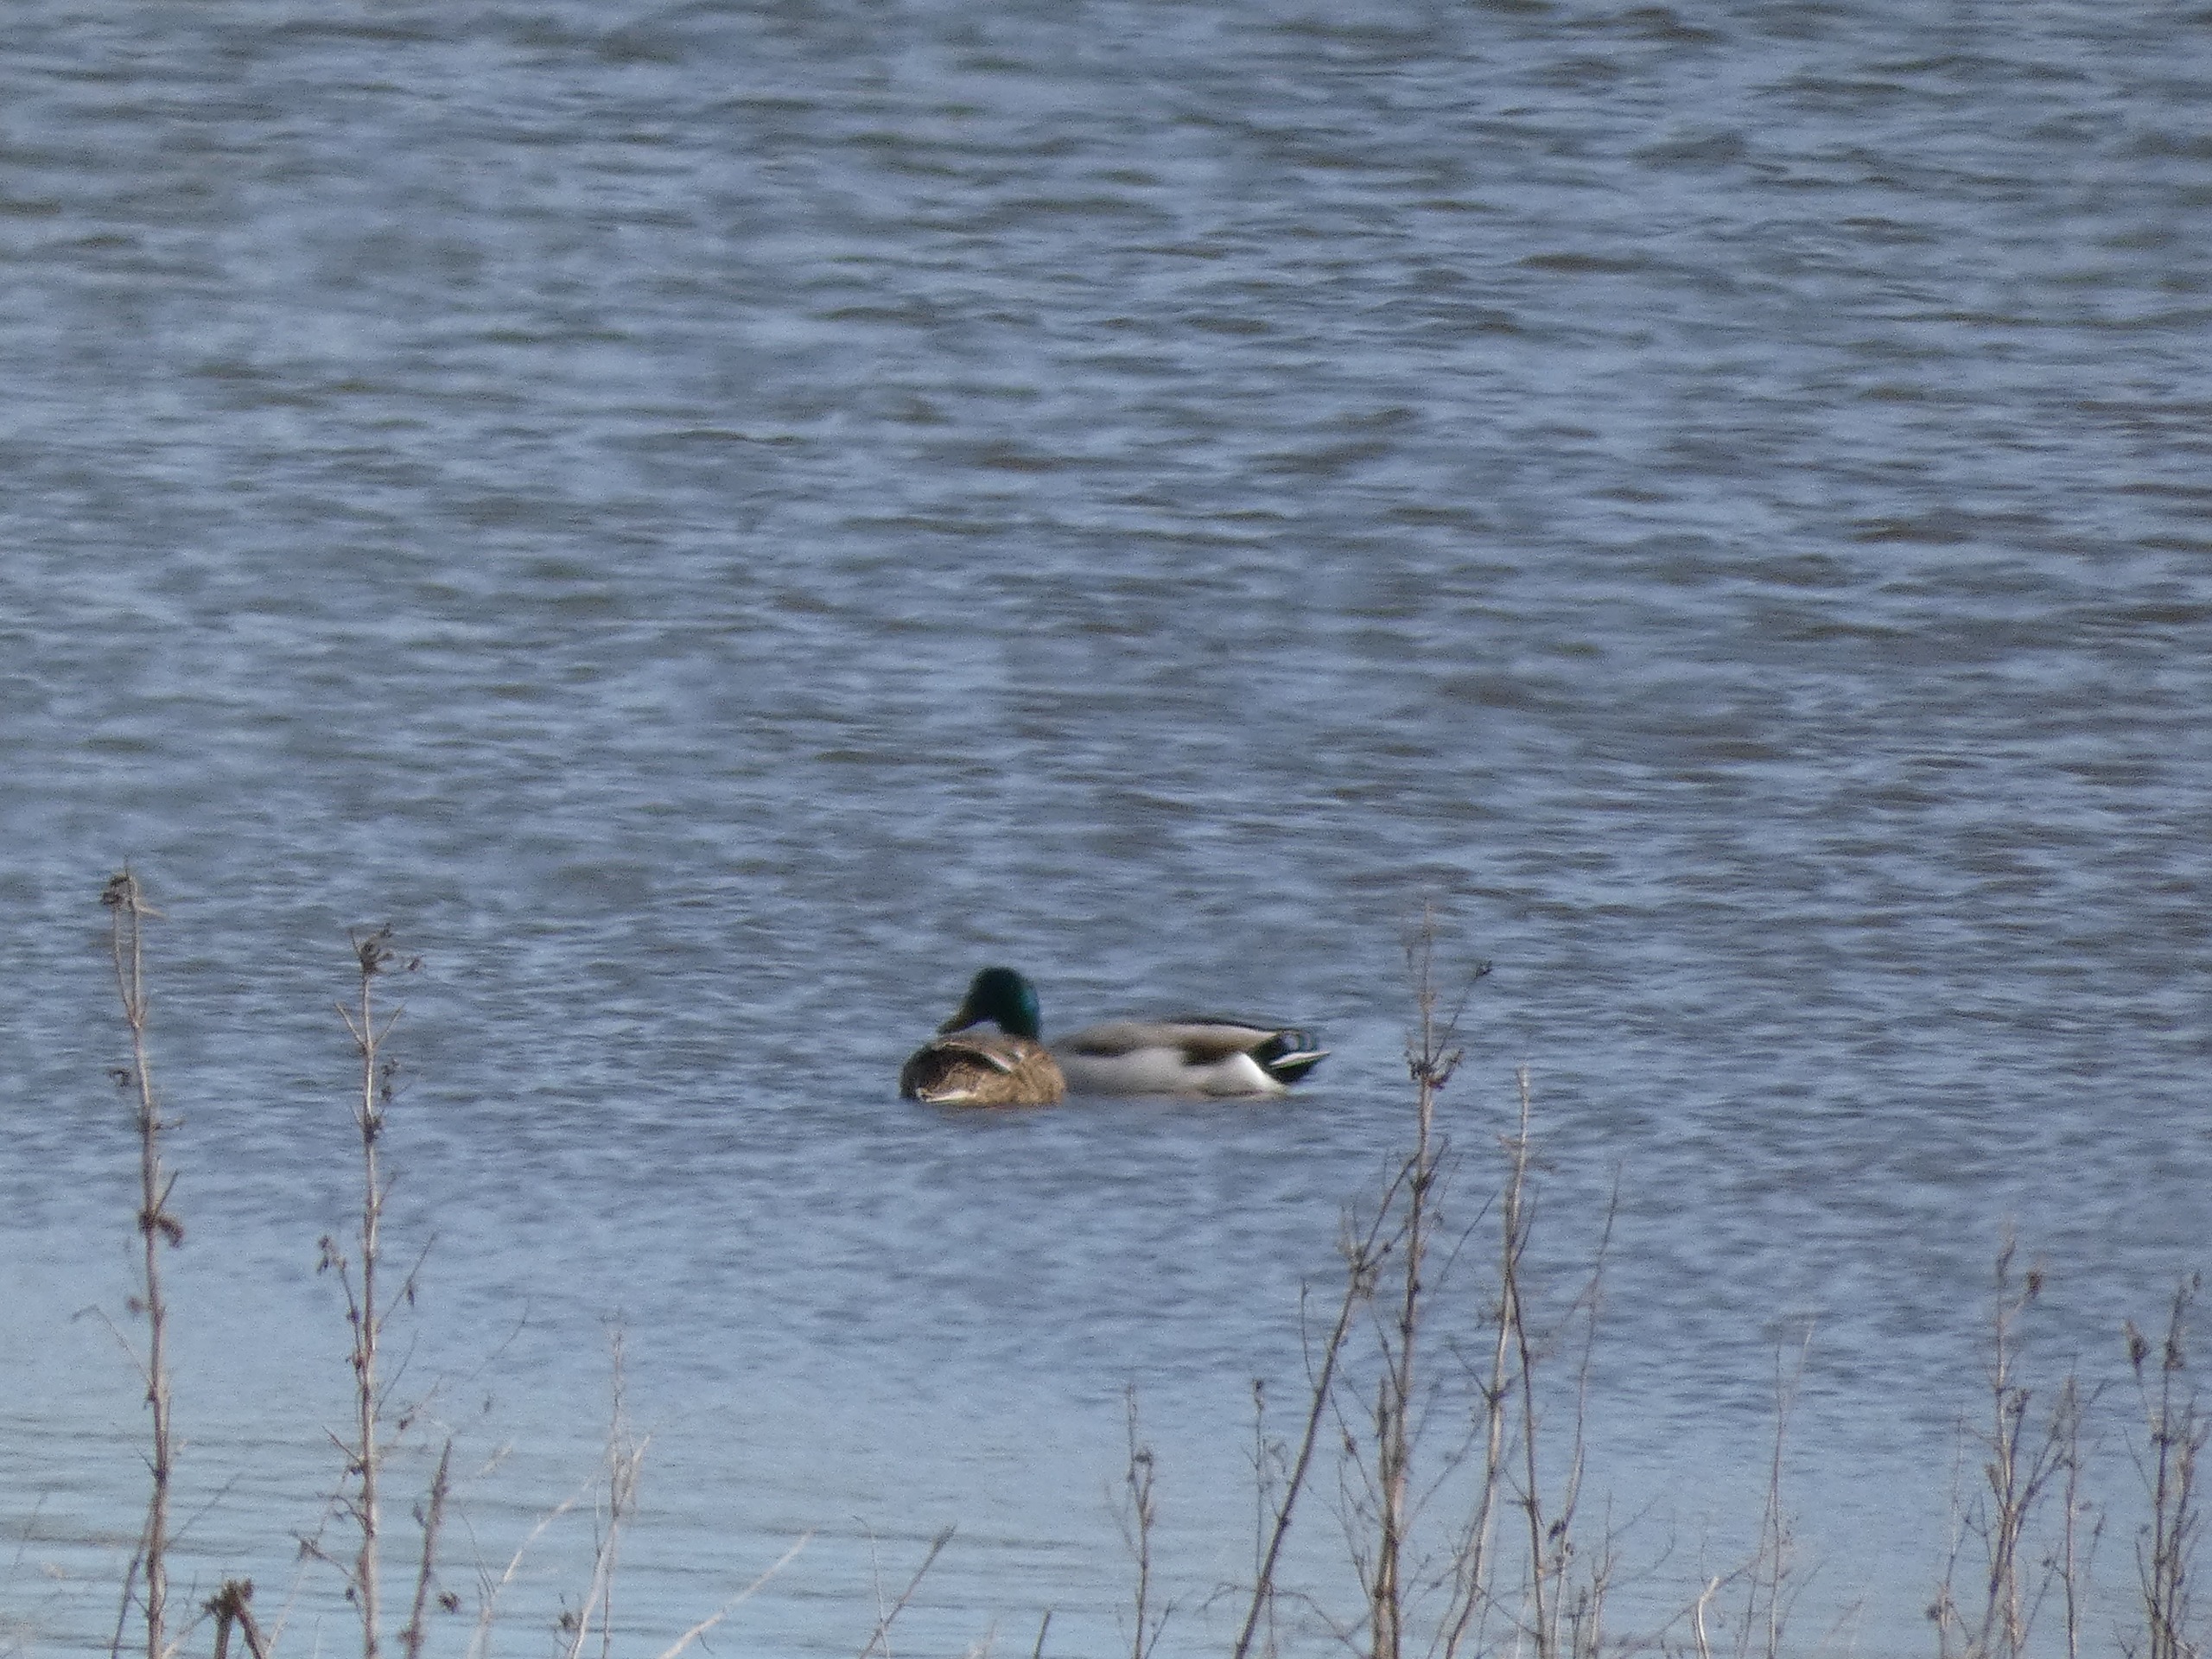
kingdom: Animalia
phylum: Chordata
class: Aves
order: Anseriformes
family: Anatidae
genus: Anas
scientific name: Anas platyrhynchos
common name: Gråand
